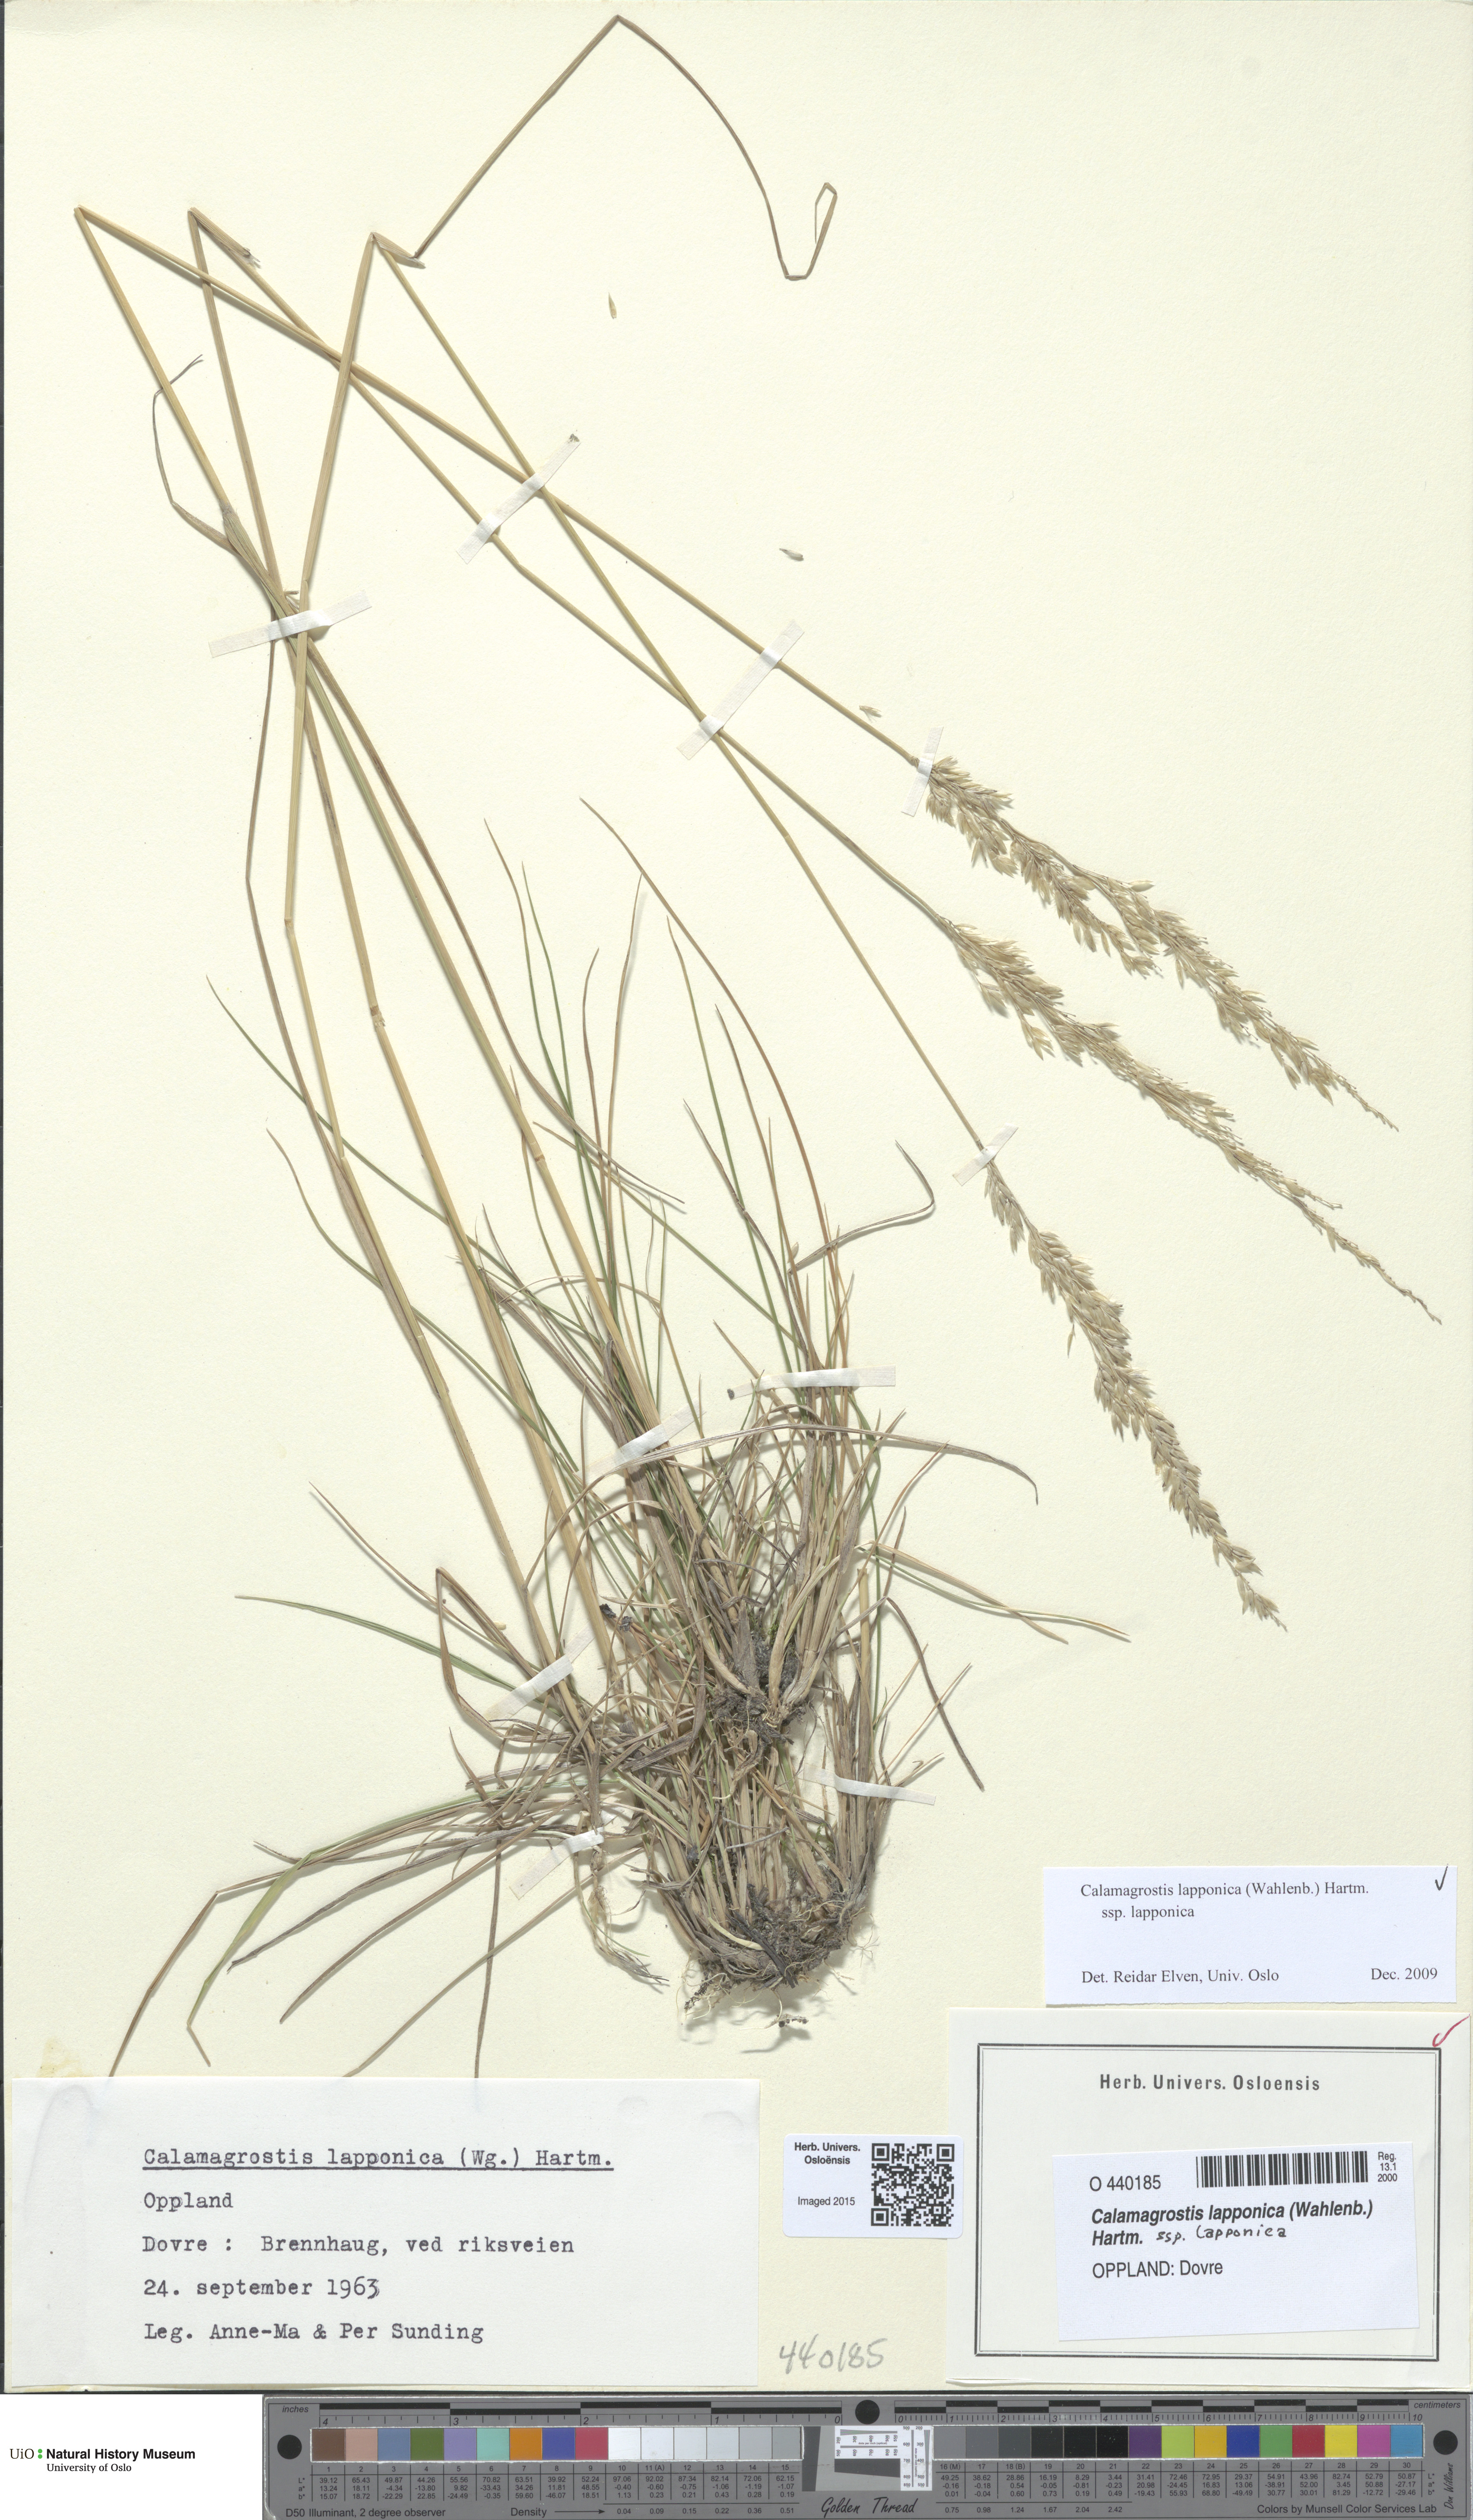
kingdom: Plantae
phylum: Tracheophyta
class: Liliopsida
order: Poales
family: Poaceae
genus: Calamagrostis
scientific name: Calamagrostis lapponica
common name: Lapland reedgrass
